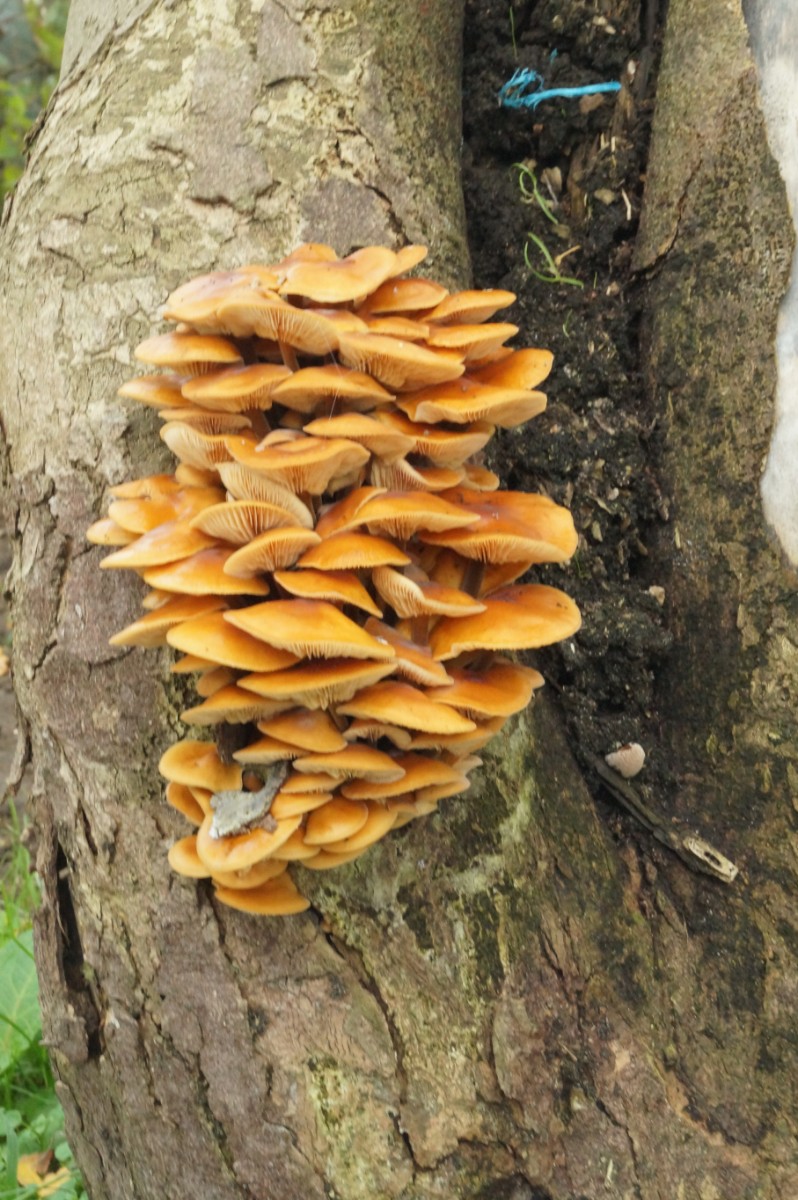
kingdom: Fungi
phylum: Basidiomycota
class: Agaricomycetes
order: Agaricales
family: Physalacriaceae
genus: Flammulina
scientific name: Flammulina velutipes
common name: gul fløjlsfod
